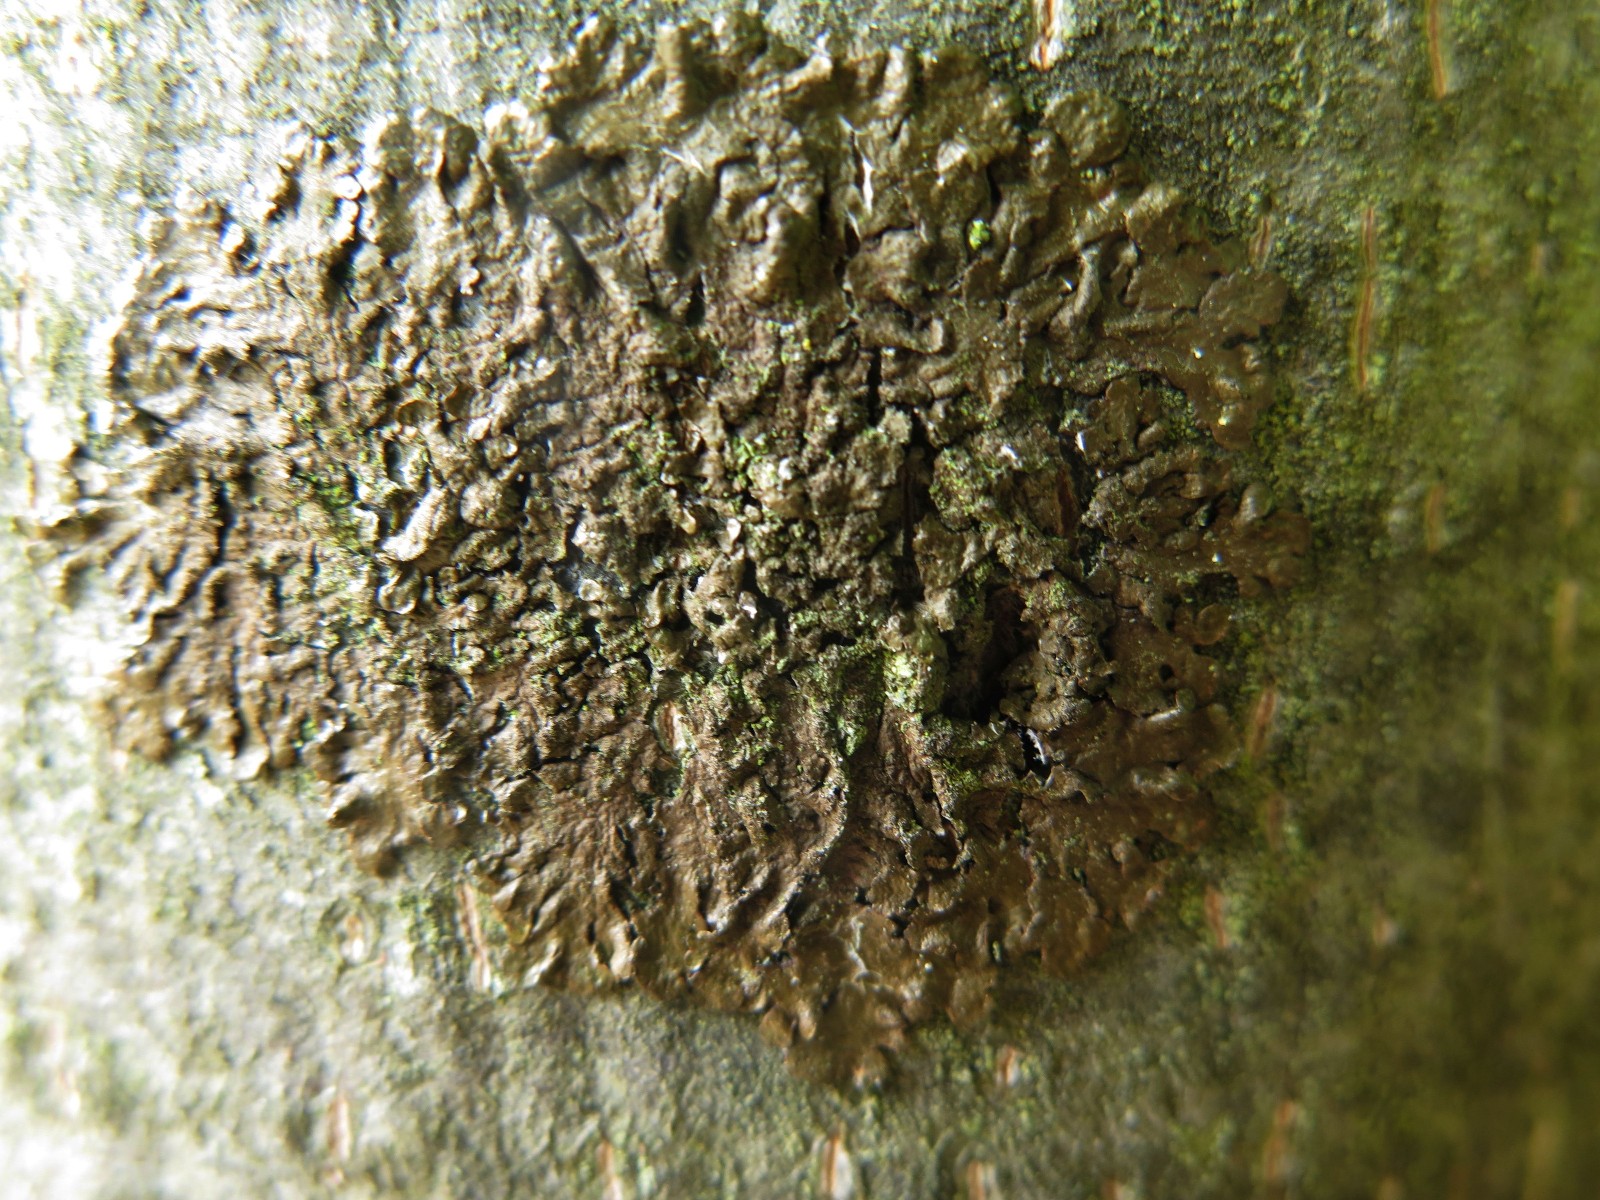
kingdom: Fungi
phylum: Ascomycota
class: Lecanoromycetes
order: Lecanorales
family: Parmeliaceae
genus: Melanelixia
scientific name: Melanelixia subaurifera
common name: guldpudret skållav
